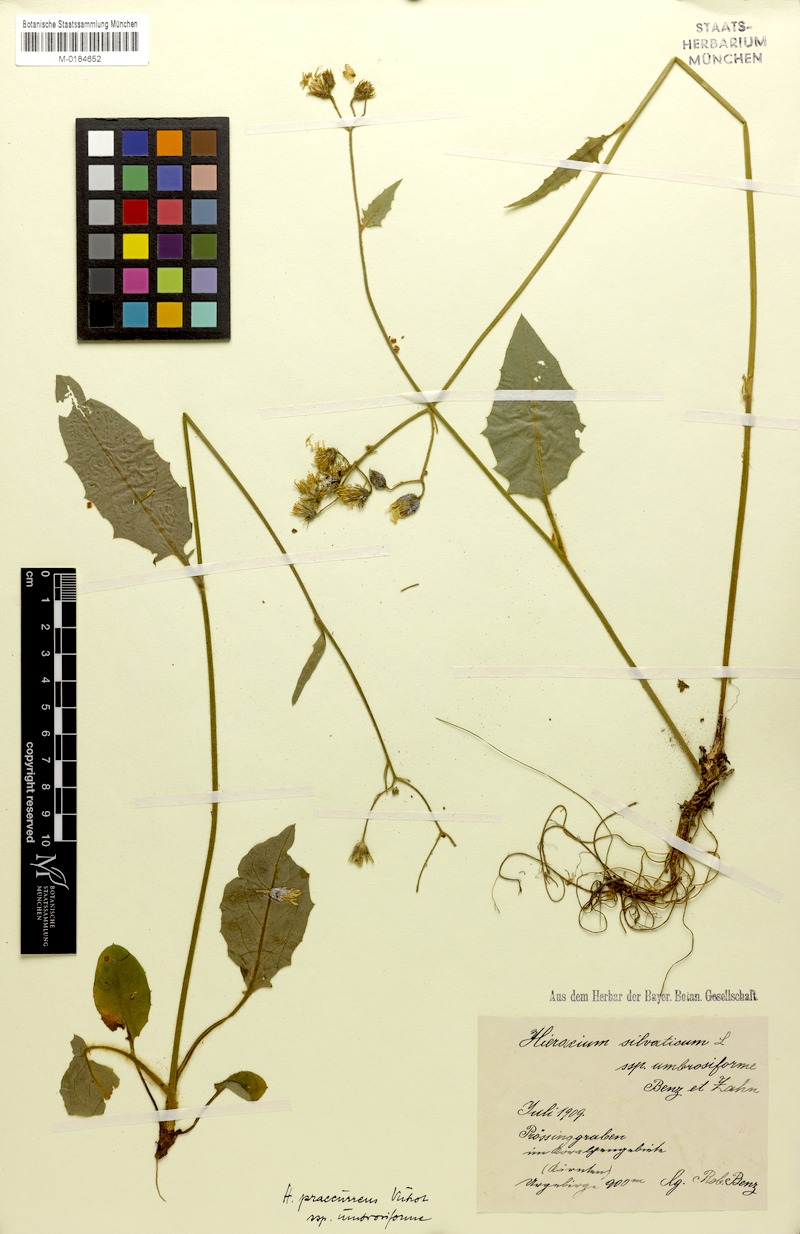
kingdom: Plantae
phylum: Tracheophyta
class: Magnoliopsida
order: Asterales
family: Asteraceae
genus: Hieracium
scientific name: Hieracium rotundatum
